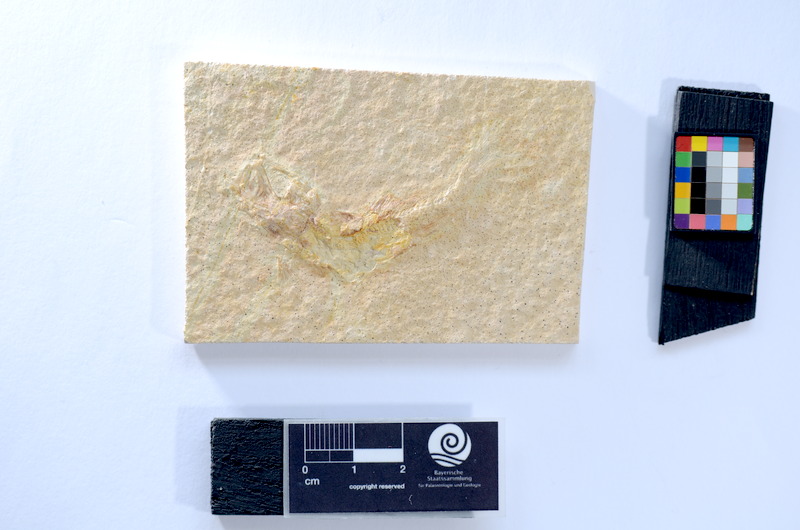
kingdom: Animalia
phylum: Chordata
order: Salmoniformes
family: Orthogonikleithridae
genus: Leptolepides
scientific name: Leptolepides sprattiformis
